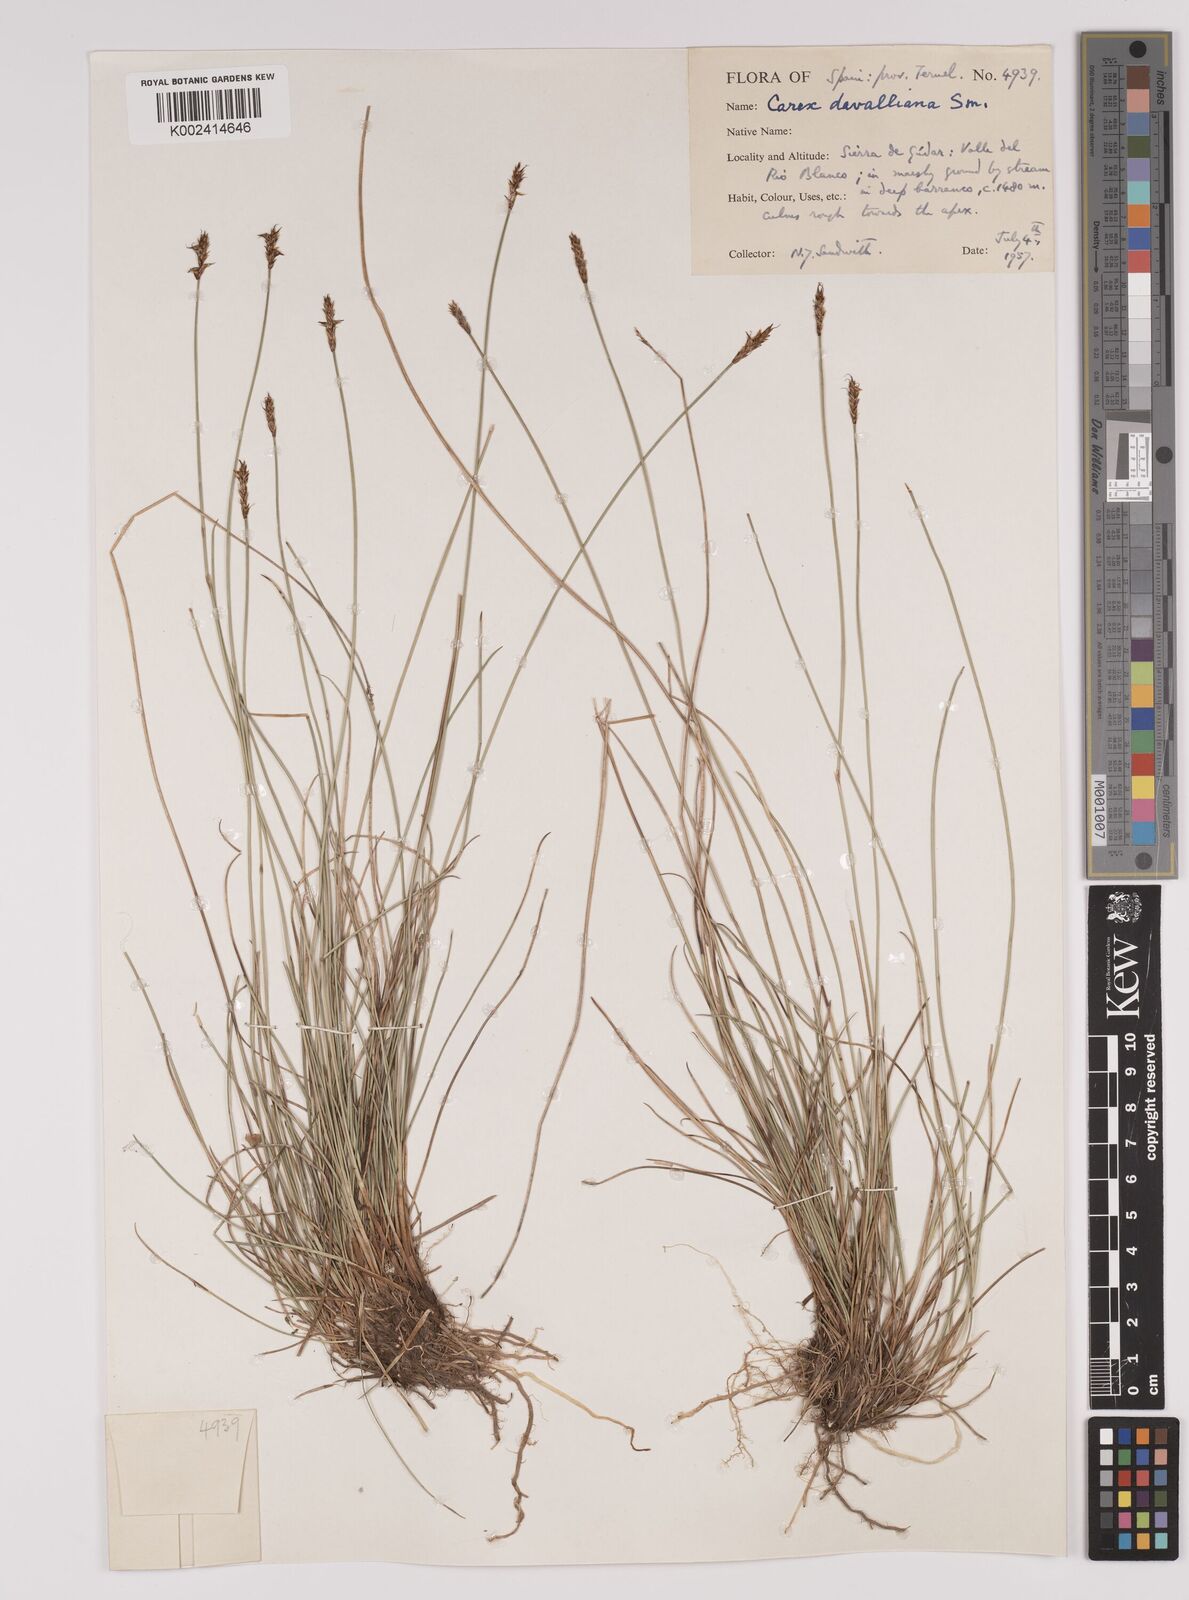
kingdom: Plantae
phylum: Tracheophyta
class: Liliopsida
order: Poales
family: Cyperaceae
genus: Carex
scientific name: Carex davalliana
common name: Davall's sedge
